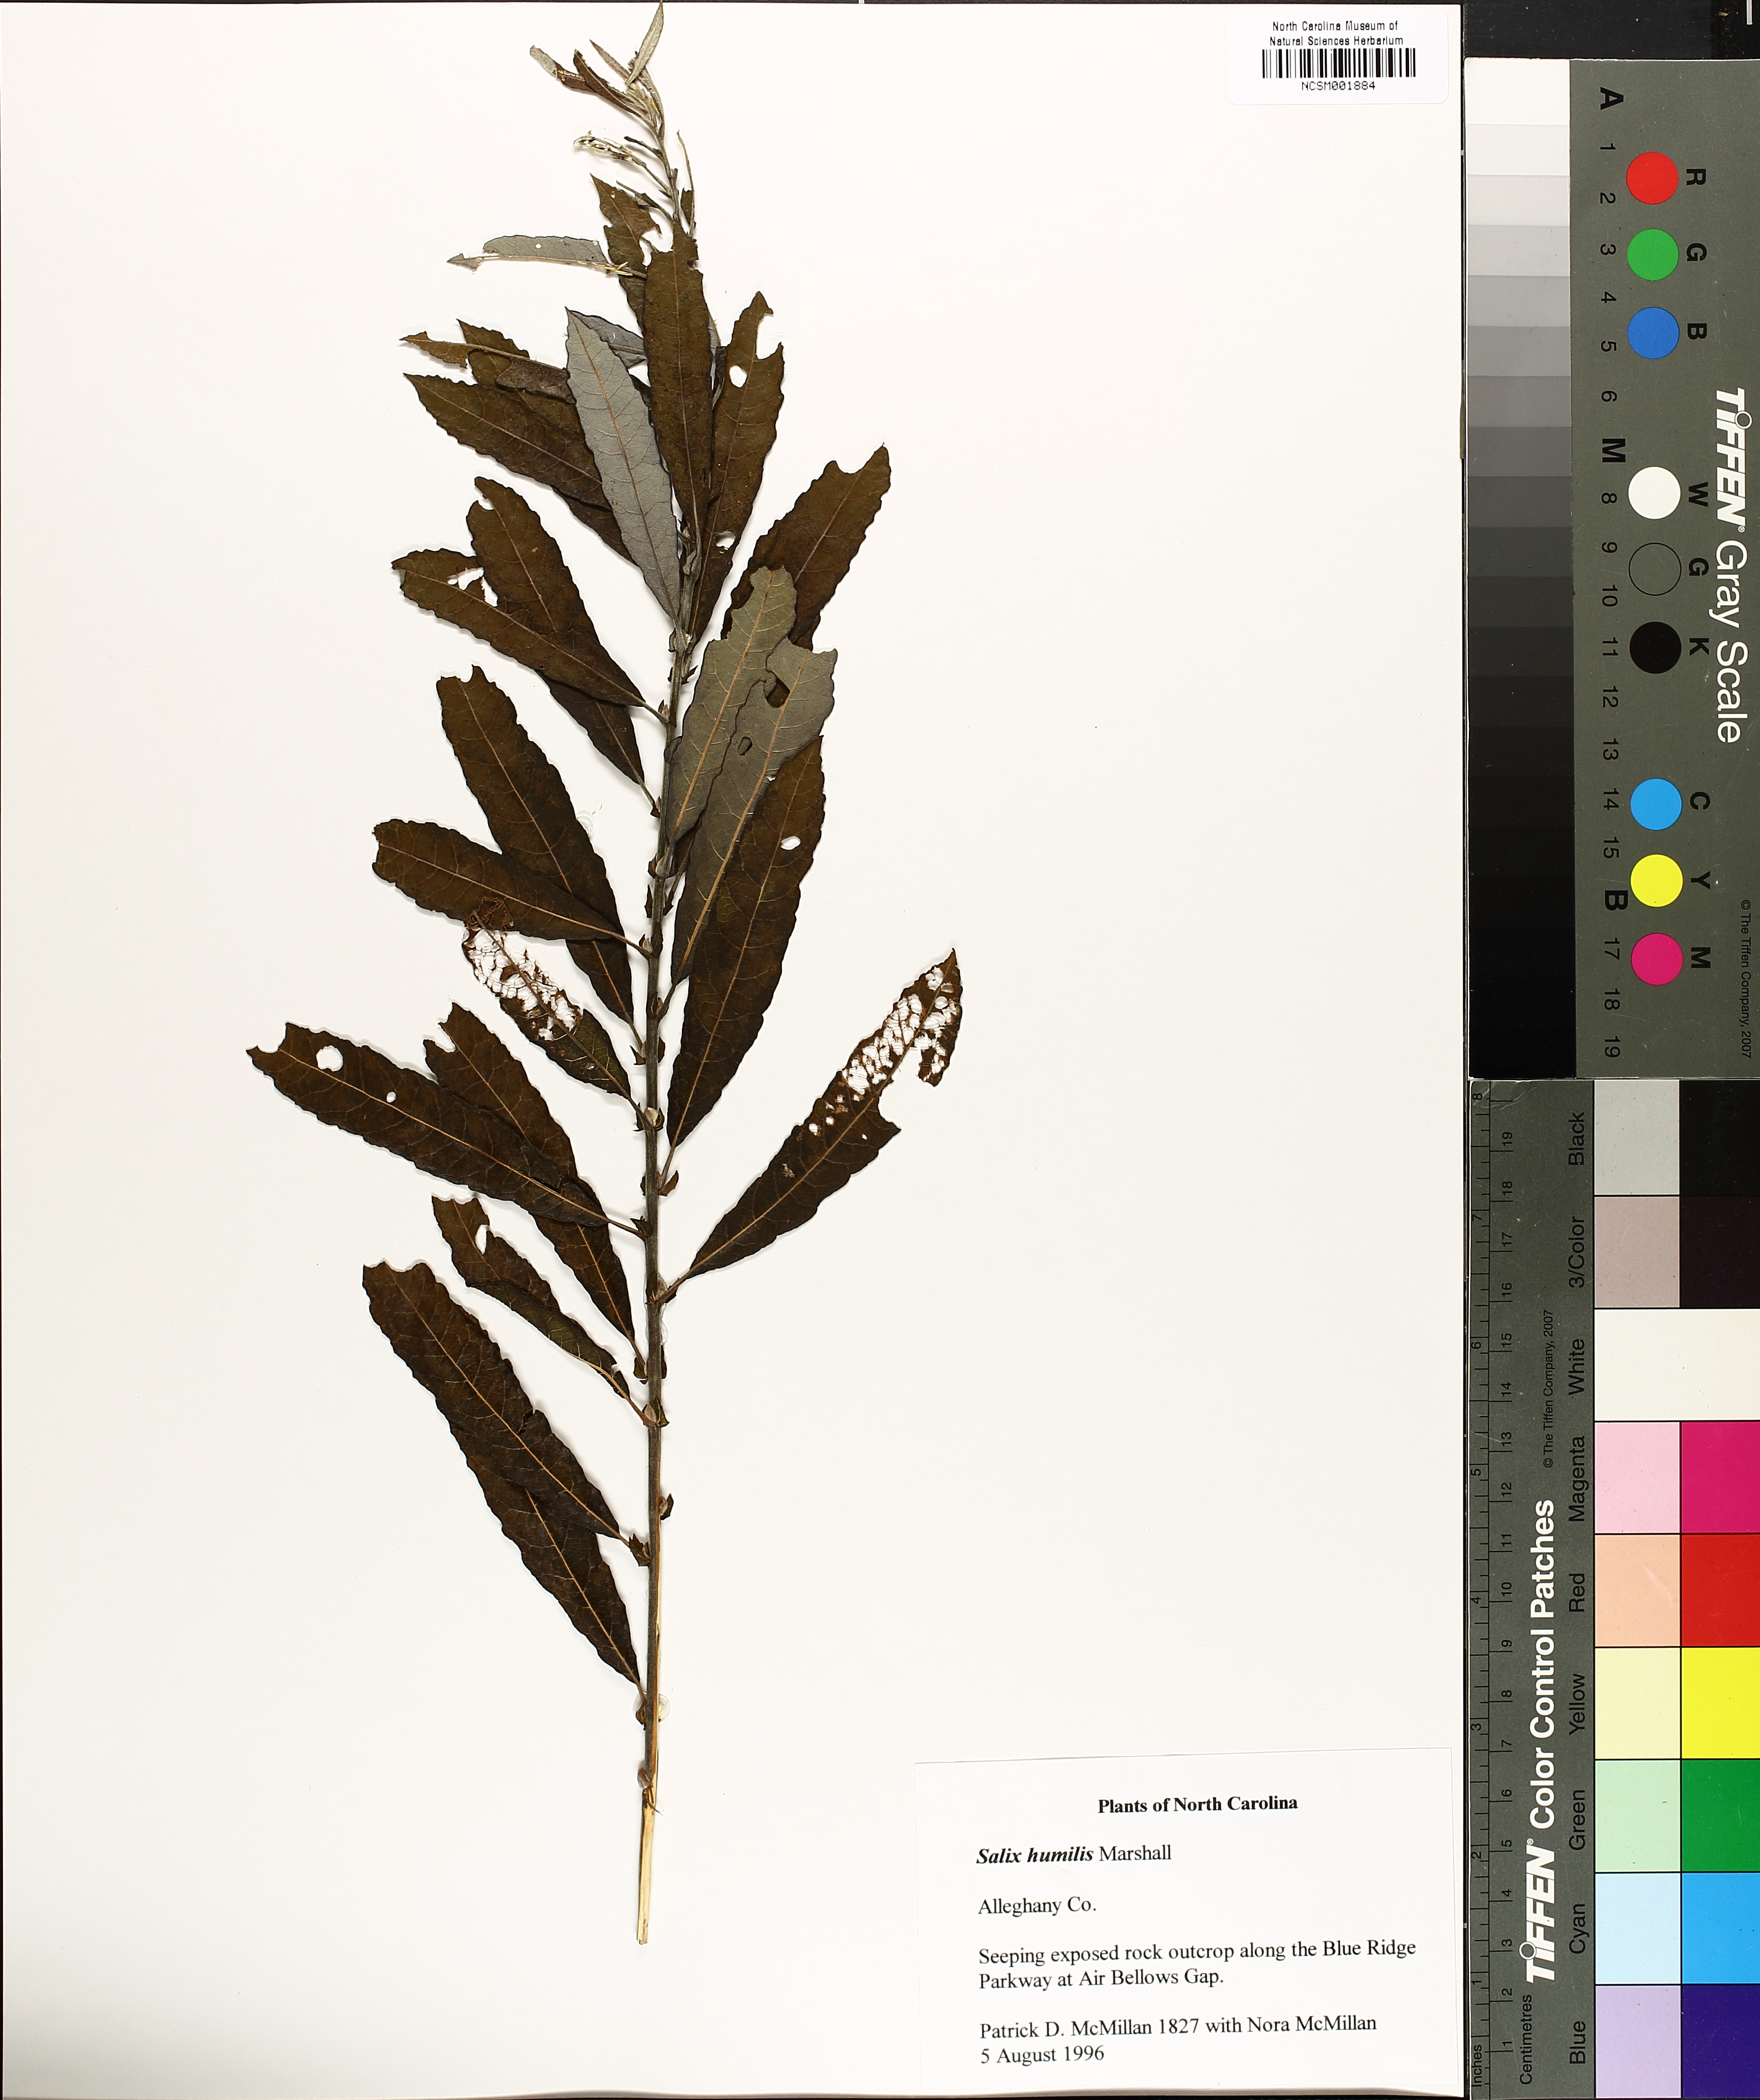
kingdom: Plantae
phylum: Tracheophyta
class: Magnoliopsida
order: Malpighiales
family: Salicaceae
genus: Salix
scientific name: Salix humilis
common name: Prairie willow
